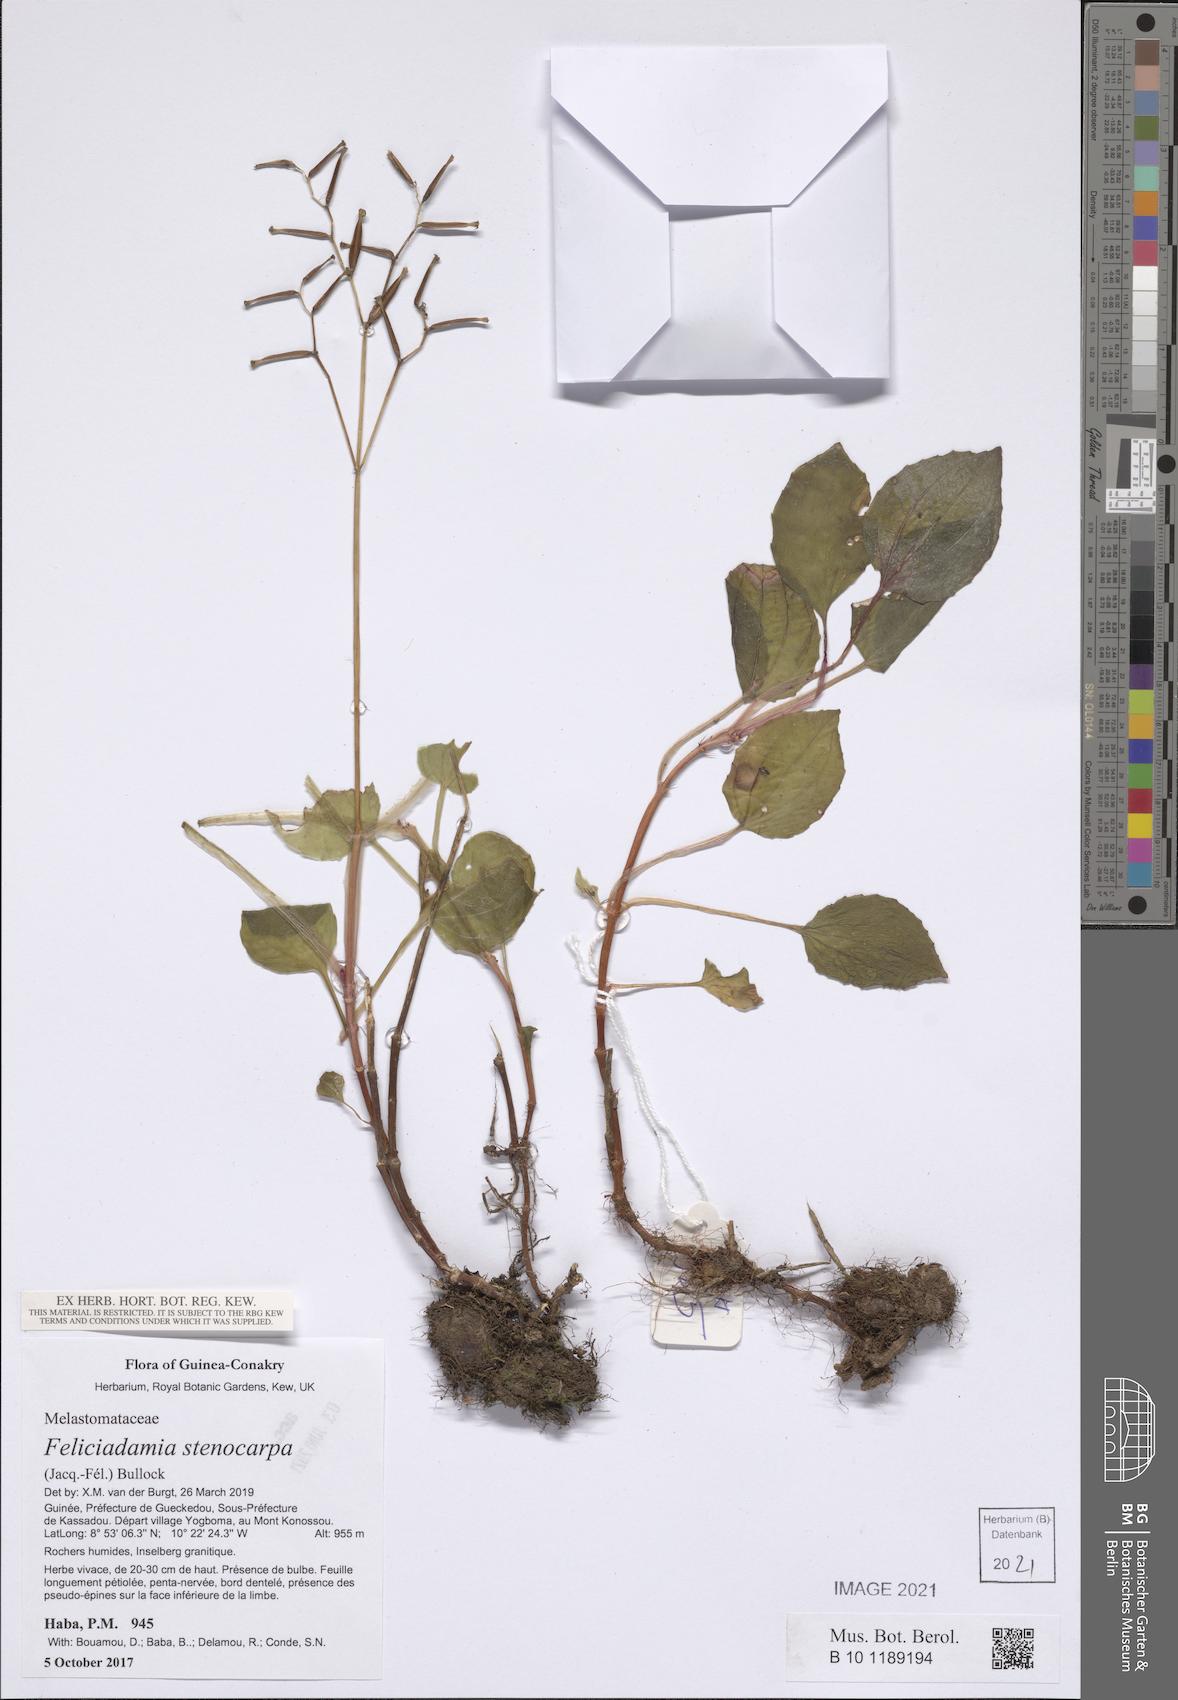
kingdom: Plantae
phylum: Tracheophyta
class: Magnoliopsida
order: Myrtales
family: Melastomataceae
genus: Feliciadamia
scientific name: Feliciadamia stenocarpa
